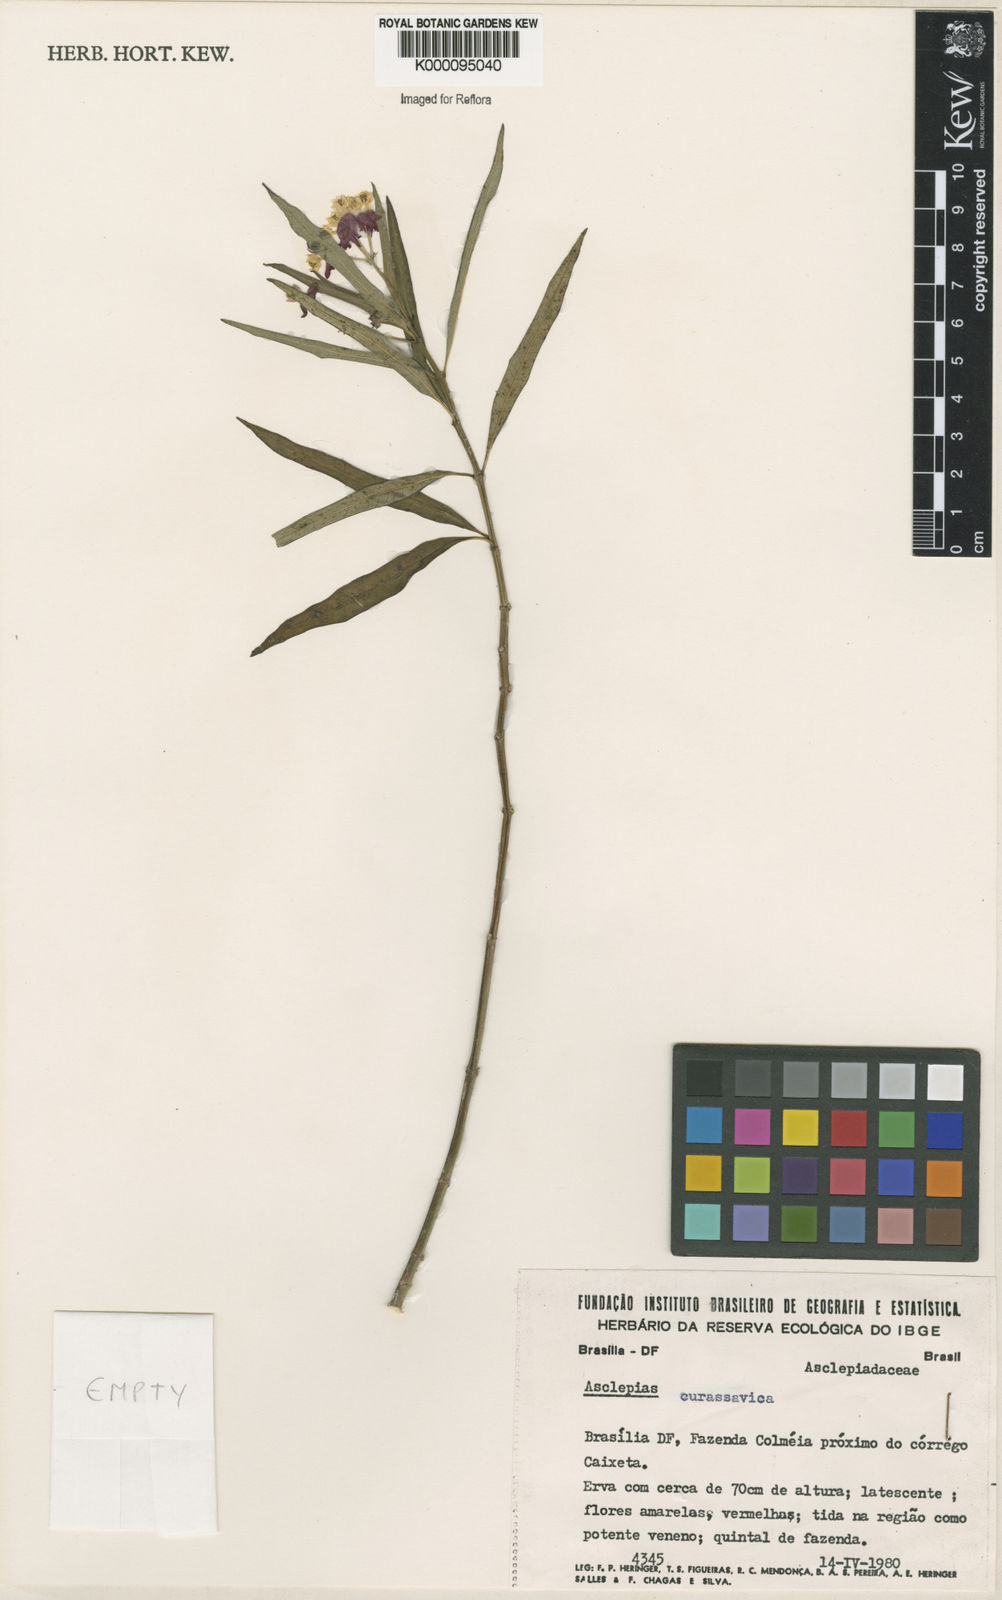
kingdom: Plantae
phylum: Tracheophyta
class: Magnoliopsida
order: Gentianales
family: Apocynaceae
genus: Asclepias
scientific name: Asclepias curassavica
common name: Bloodflower
